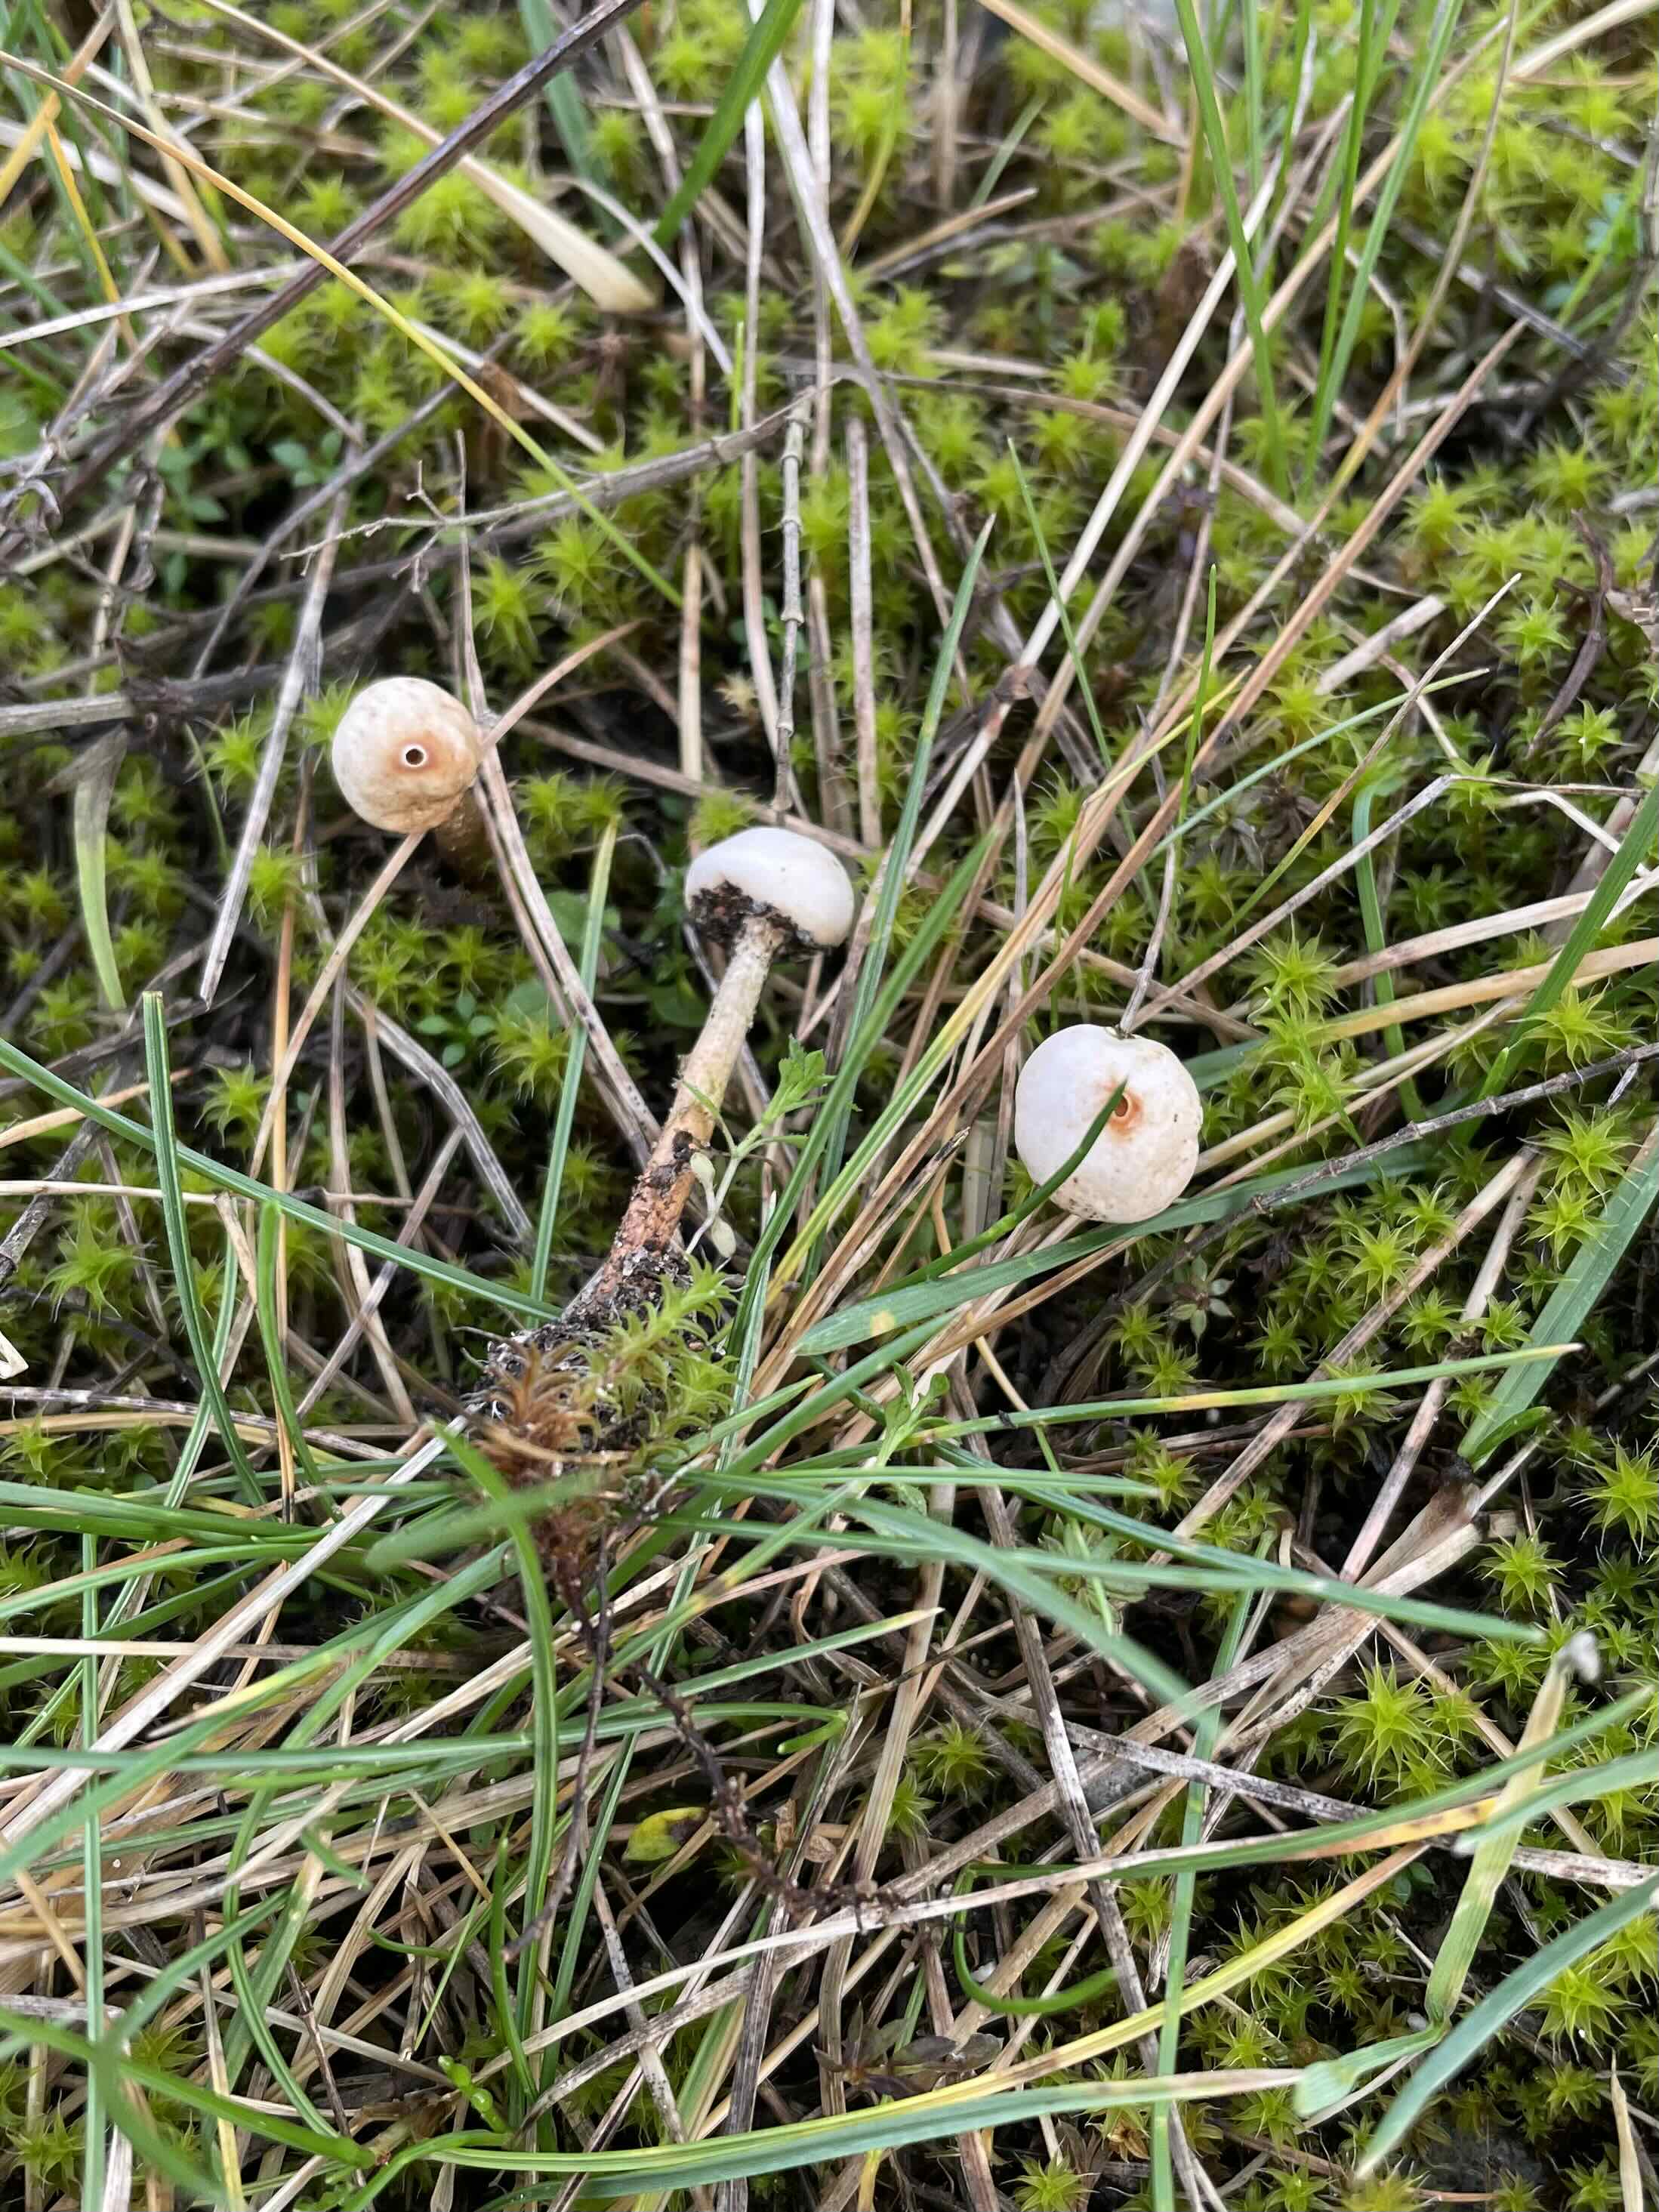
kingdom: Fungi
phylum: Basidiomycota
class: Agaricomycetes
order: Agaricales
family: Agaricaceae
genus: Tulostoma
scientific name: Tulostoma brumale
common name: vinter-stilkbovist
